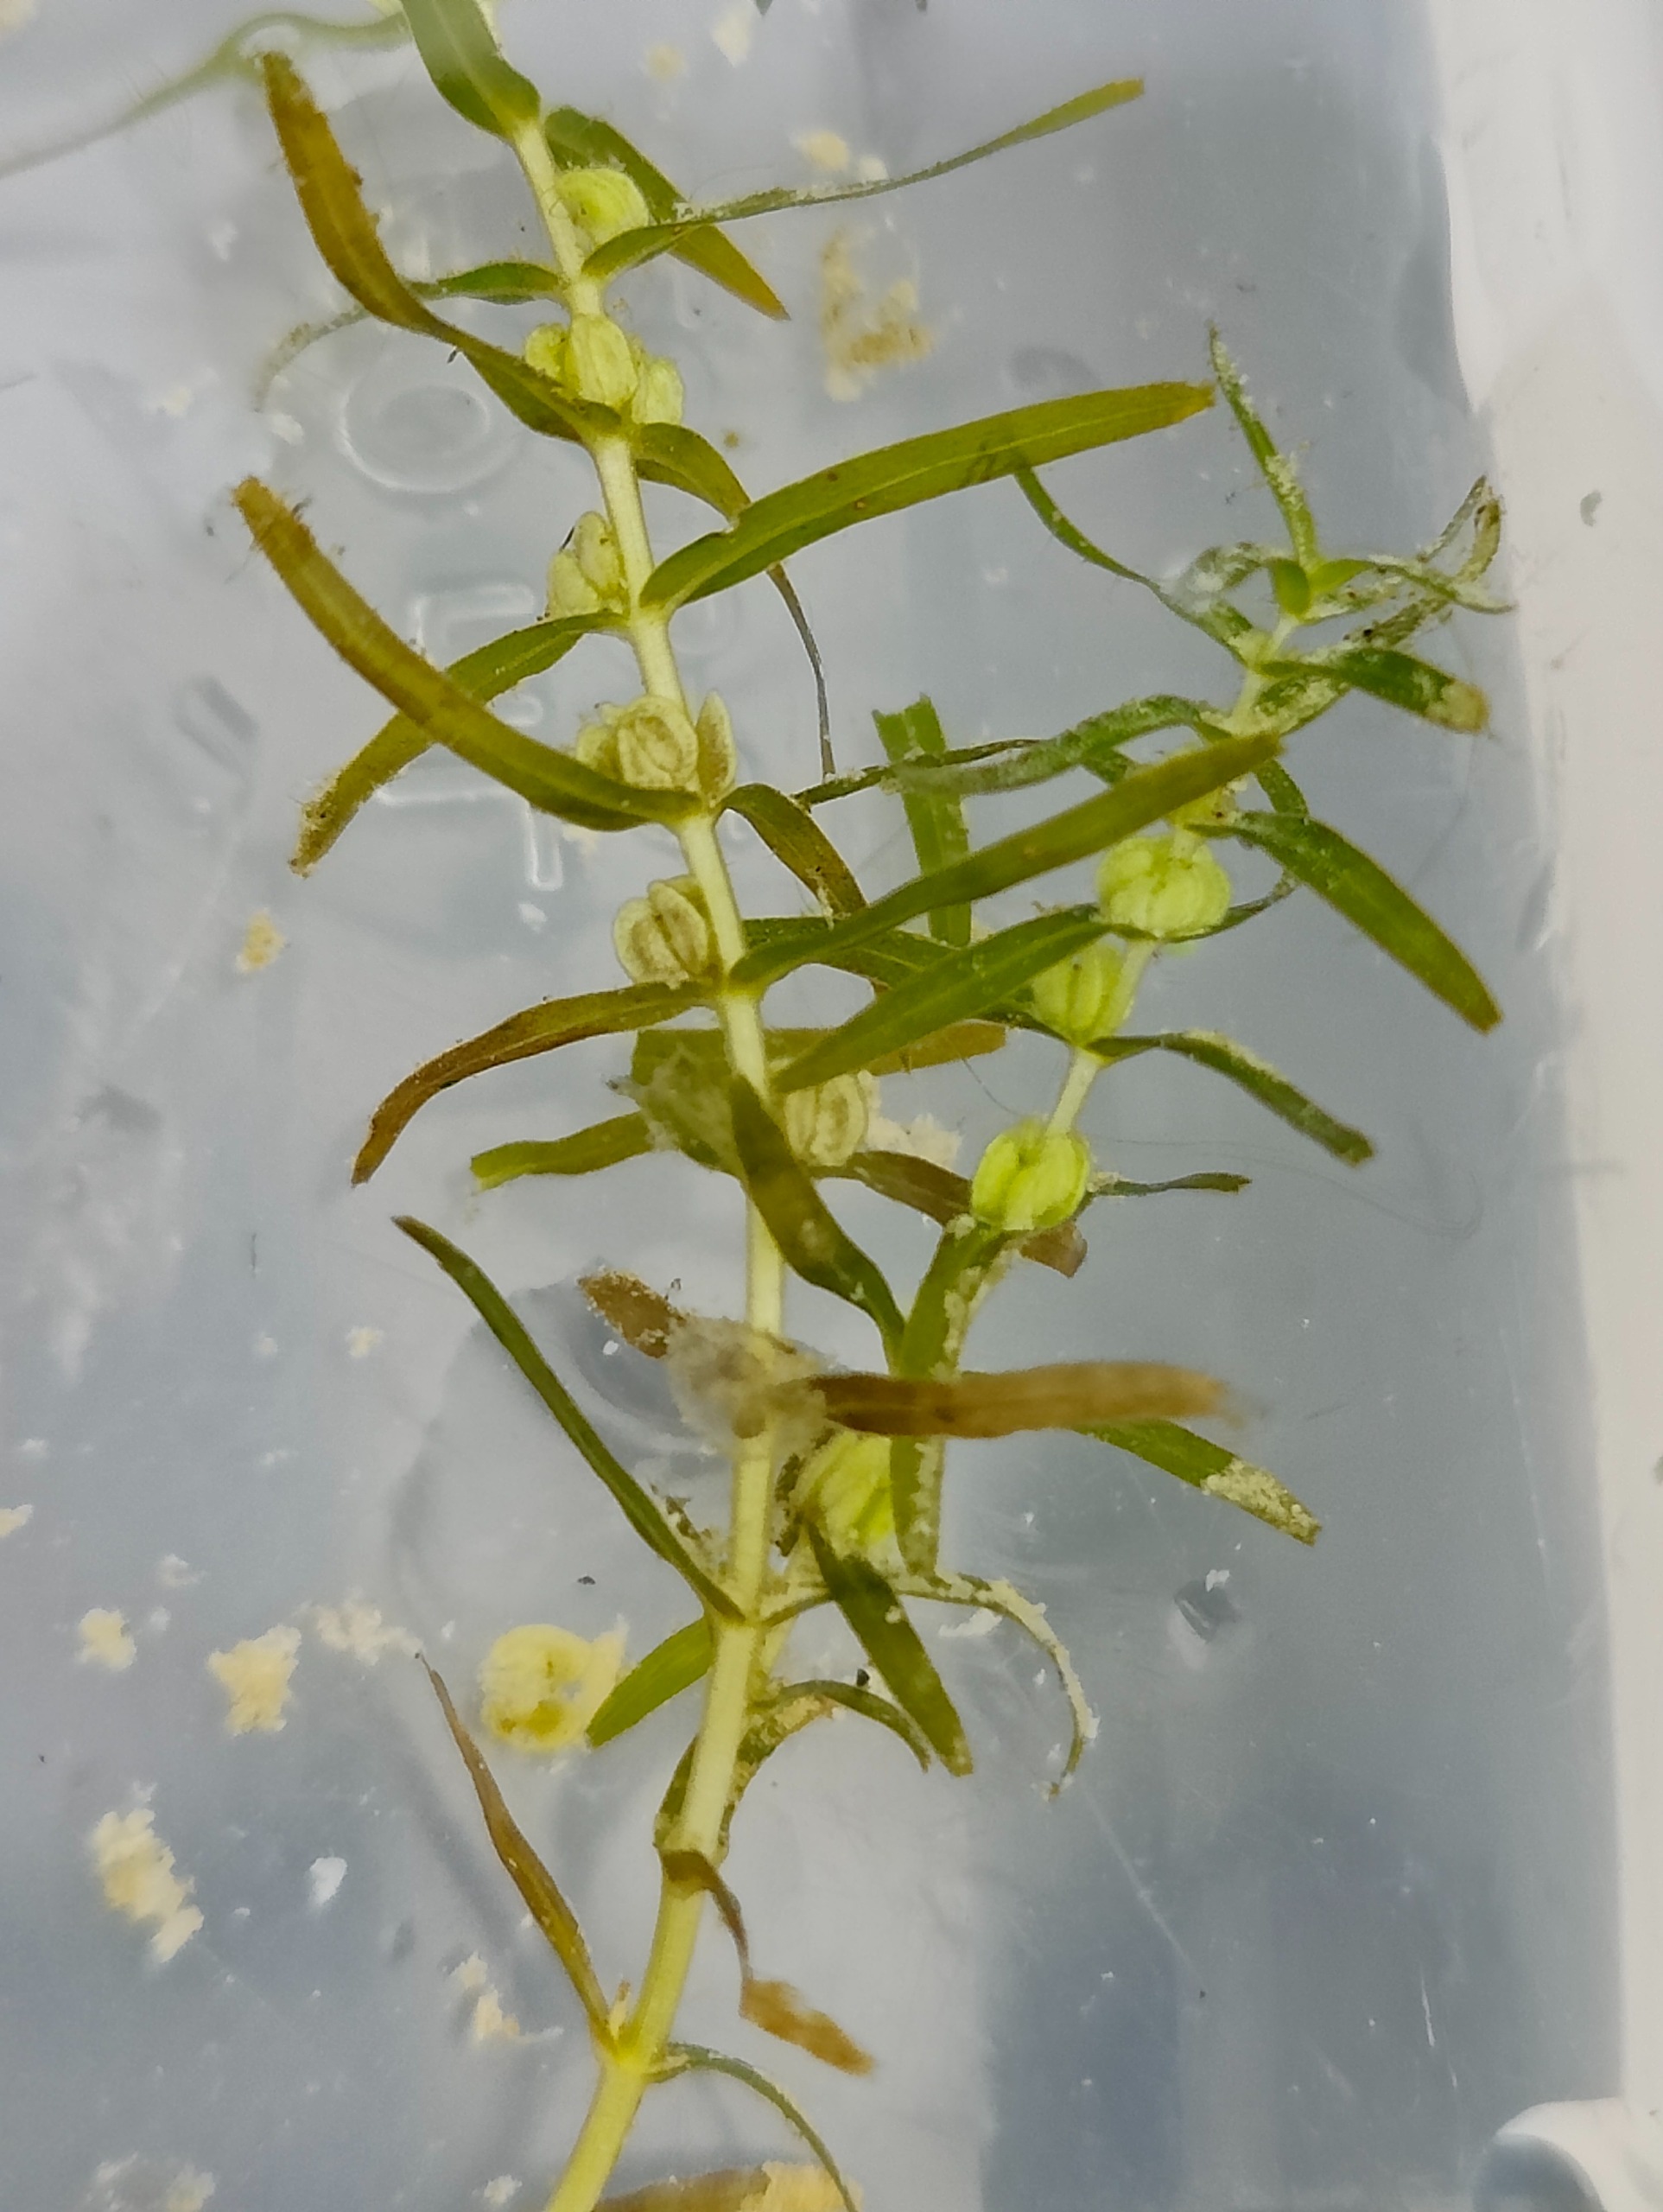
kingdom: Plantae
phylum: Tracheophyta
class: Magnoliopsida
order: Lamiales
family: Plantaginaceae
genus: Callitriche
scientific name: Callitriche hermaphroditica
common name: Høst-vandstjerne
